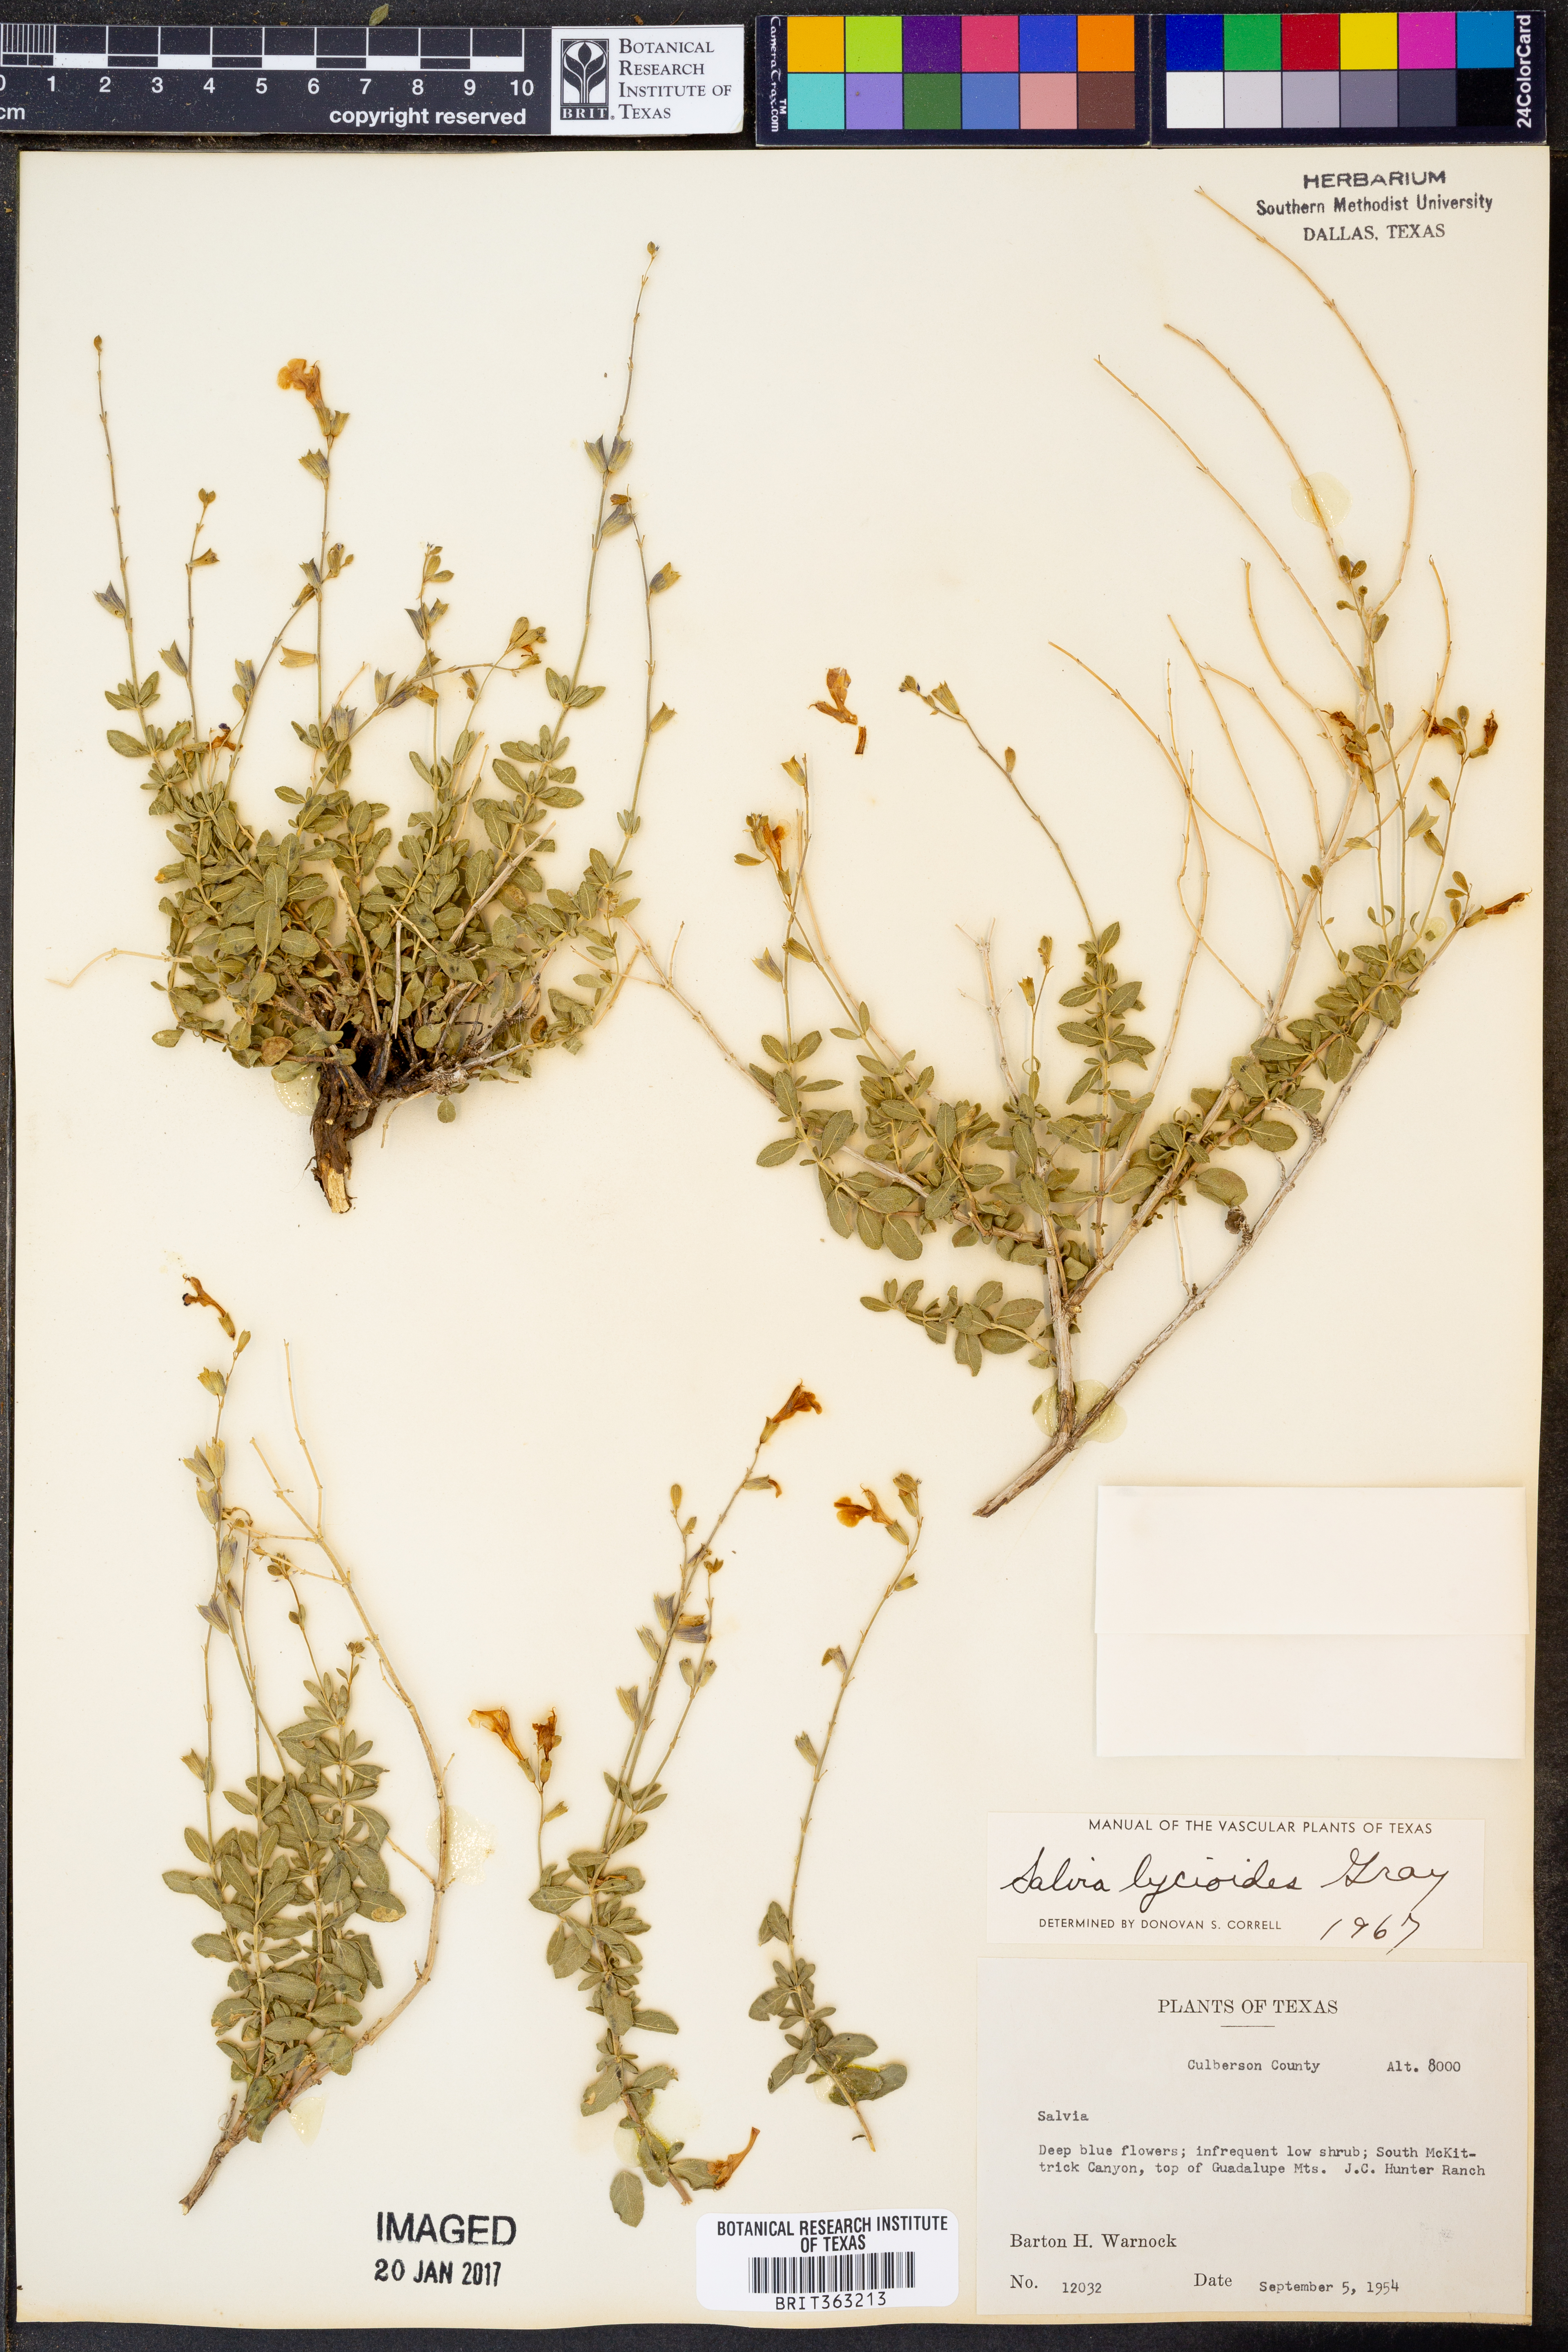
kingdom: Plantae
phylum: Tracheophyta
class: Magnoliopsida
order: Lamiales
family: Lamiaceae
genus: Salvia
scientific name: Salvia lycioides
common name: Canyon sage
